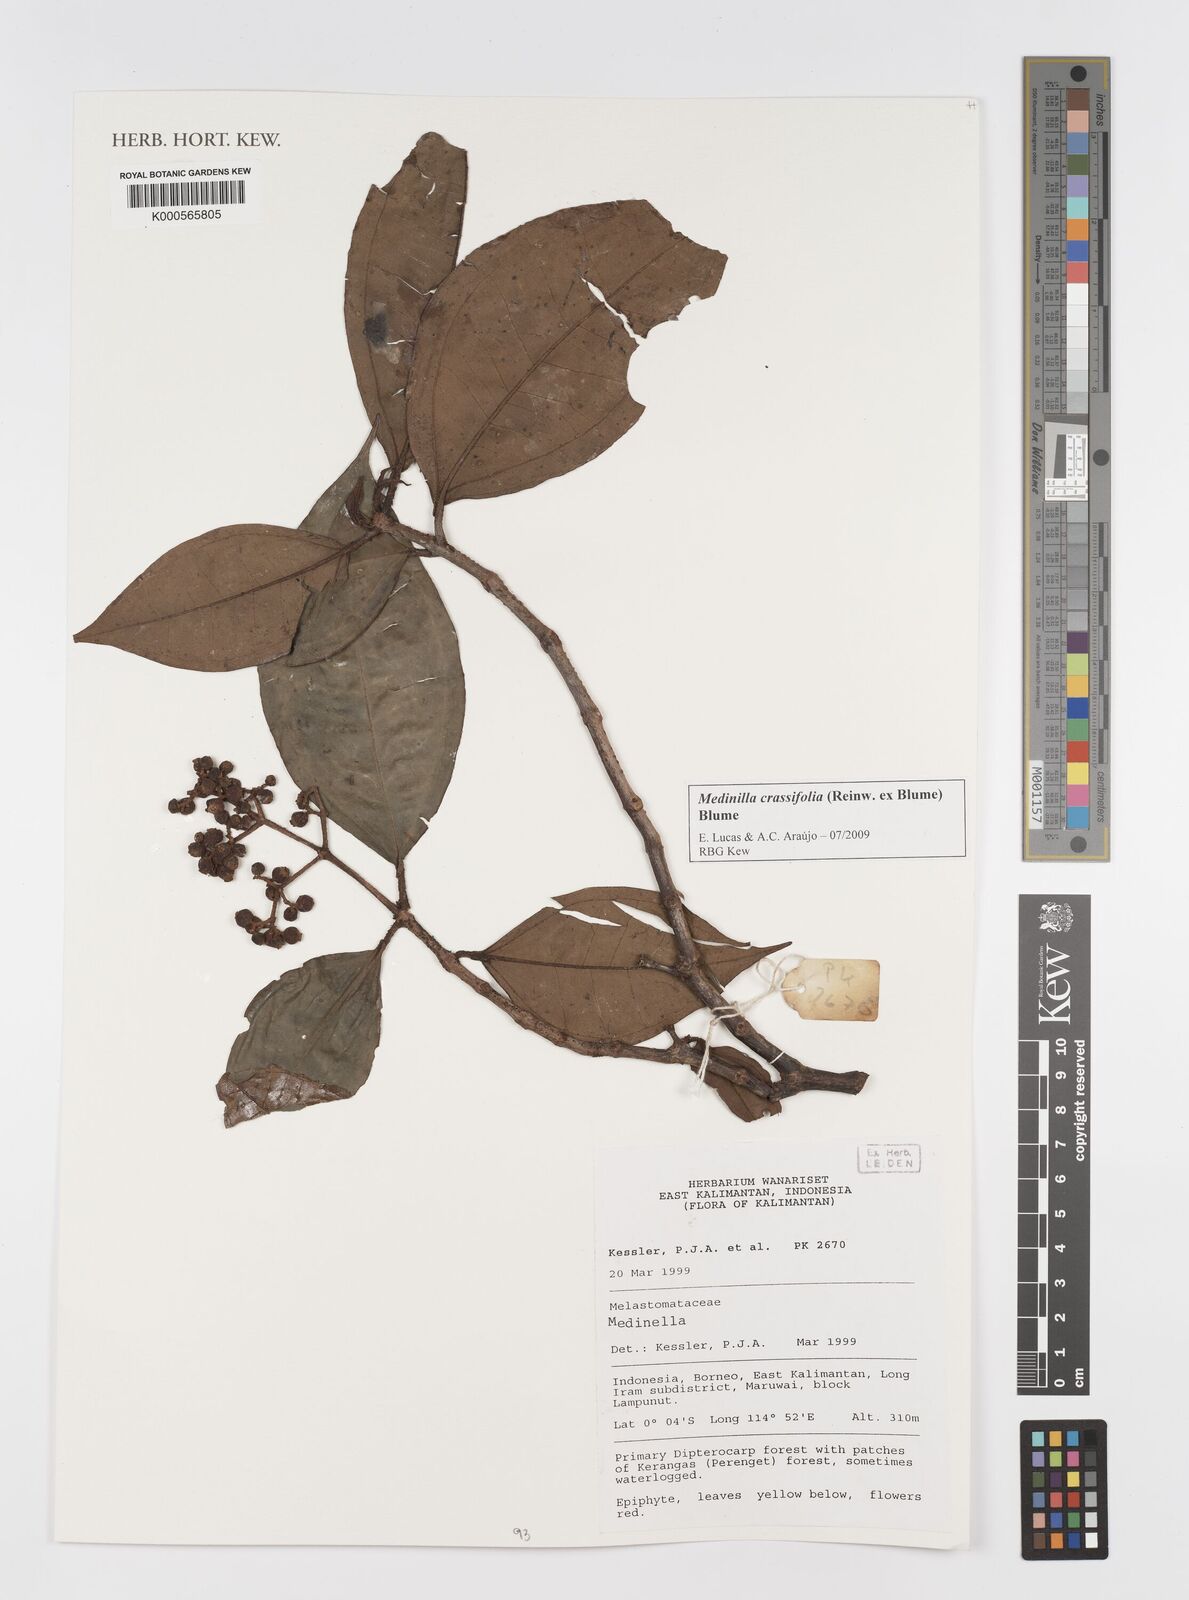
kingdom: Plantae
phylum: Tracheophyta
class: Magnoliopsida
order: Myrtales
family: Melastomataceae
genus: Medinilla
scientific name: Medinilla crassifolia
